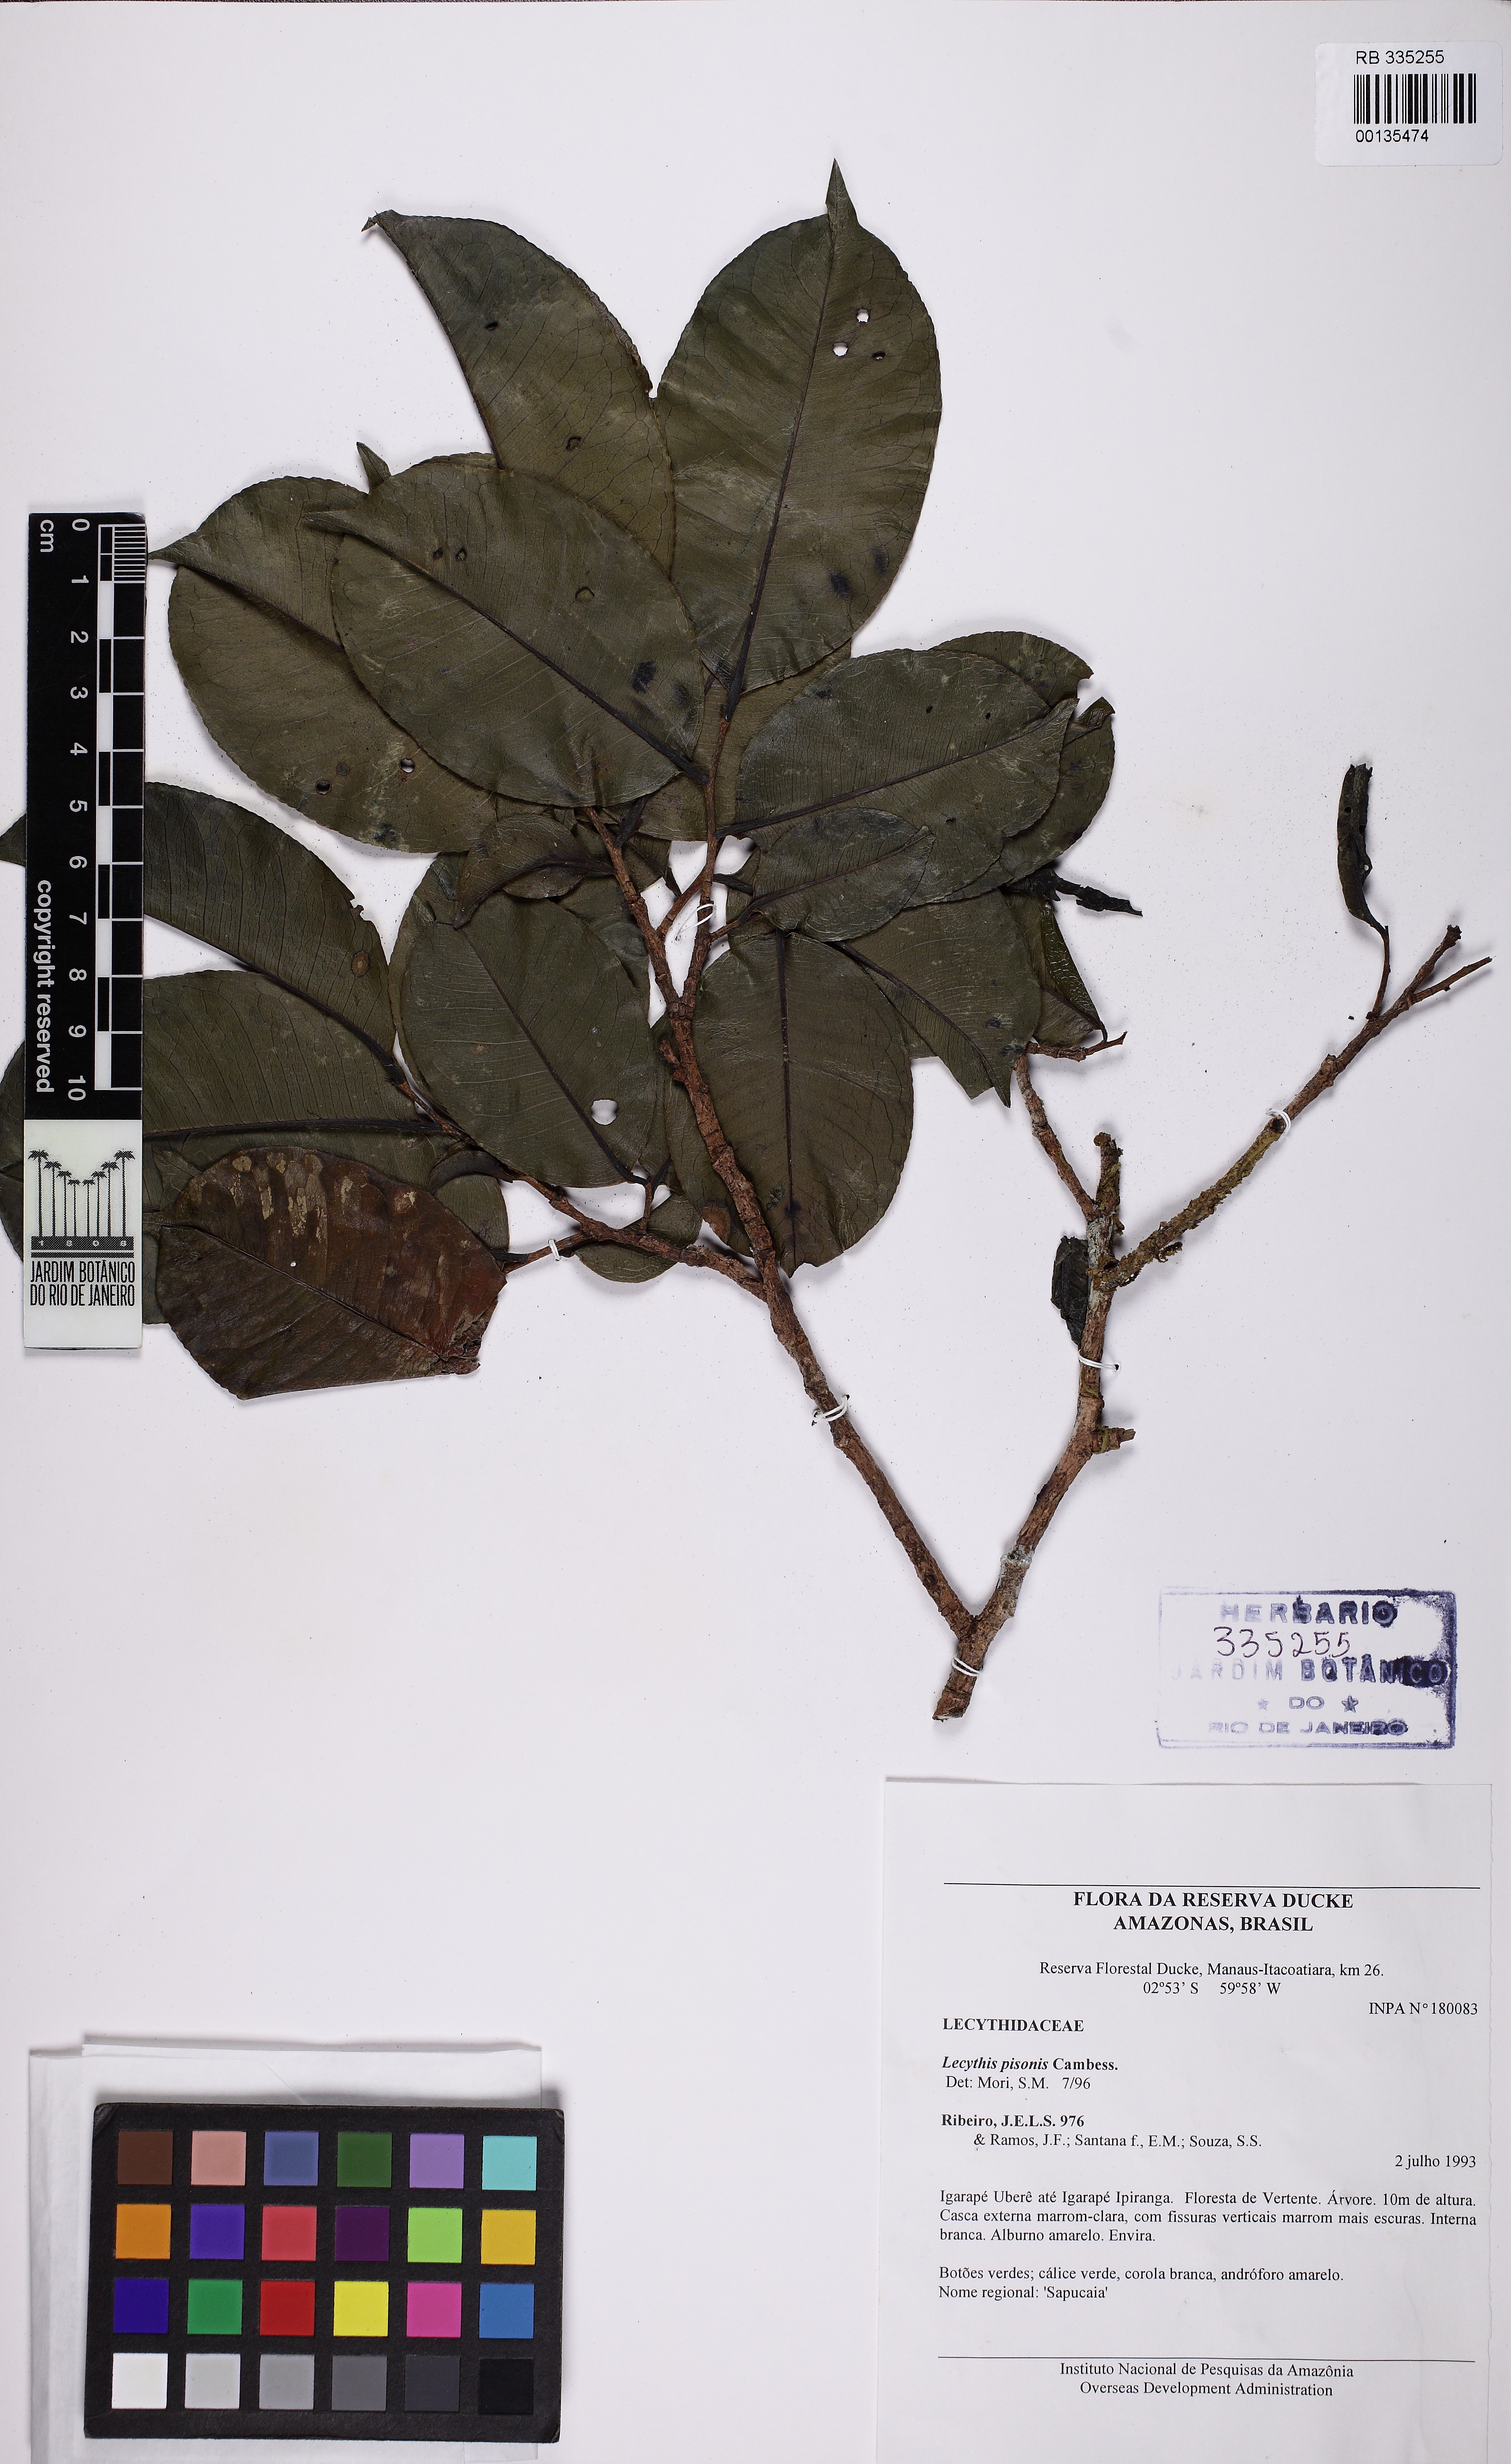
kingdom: Plantae
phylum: Tracheophyta
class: Magnoliopsida
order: Ericales
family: Lecythidaceae
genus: Lecythis
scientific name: Lecythis pisonis
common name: Paradise-nut
